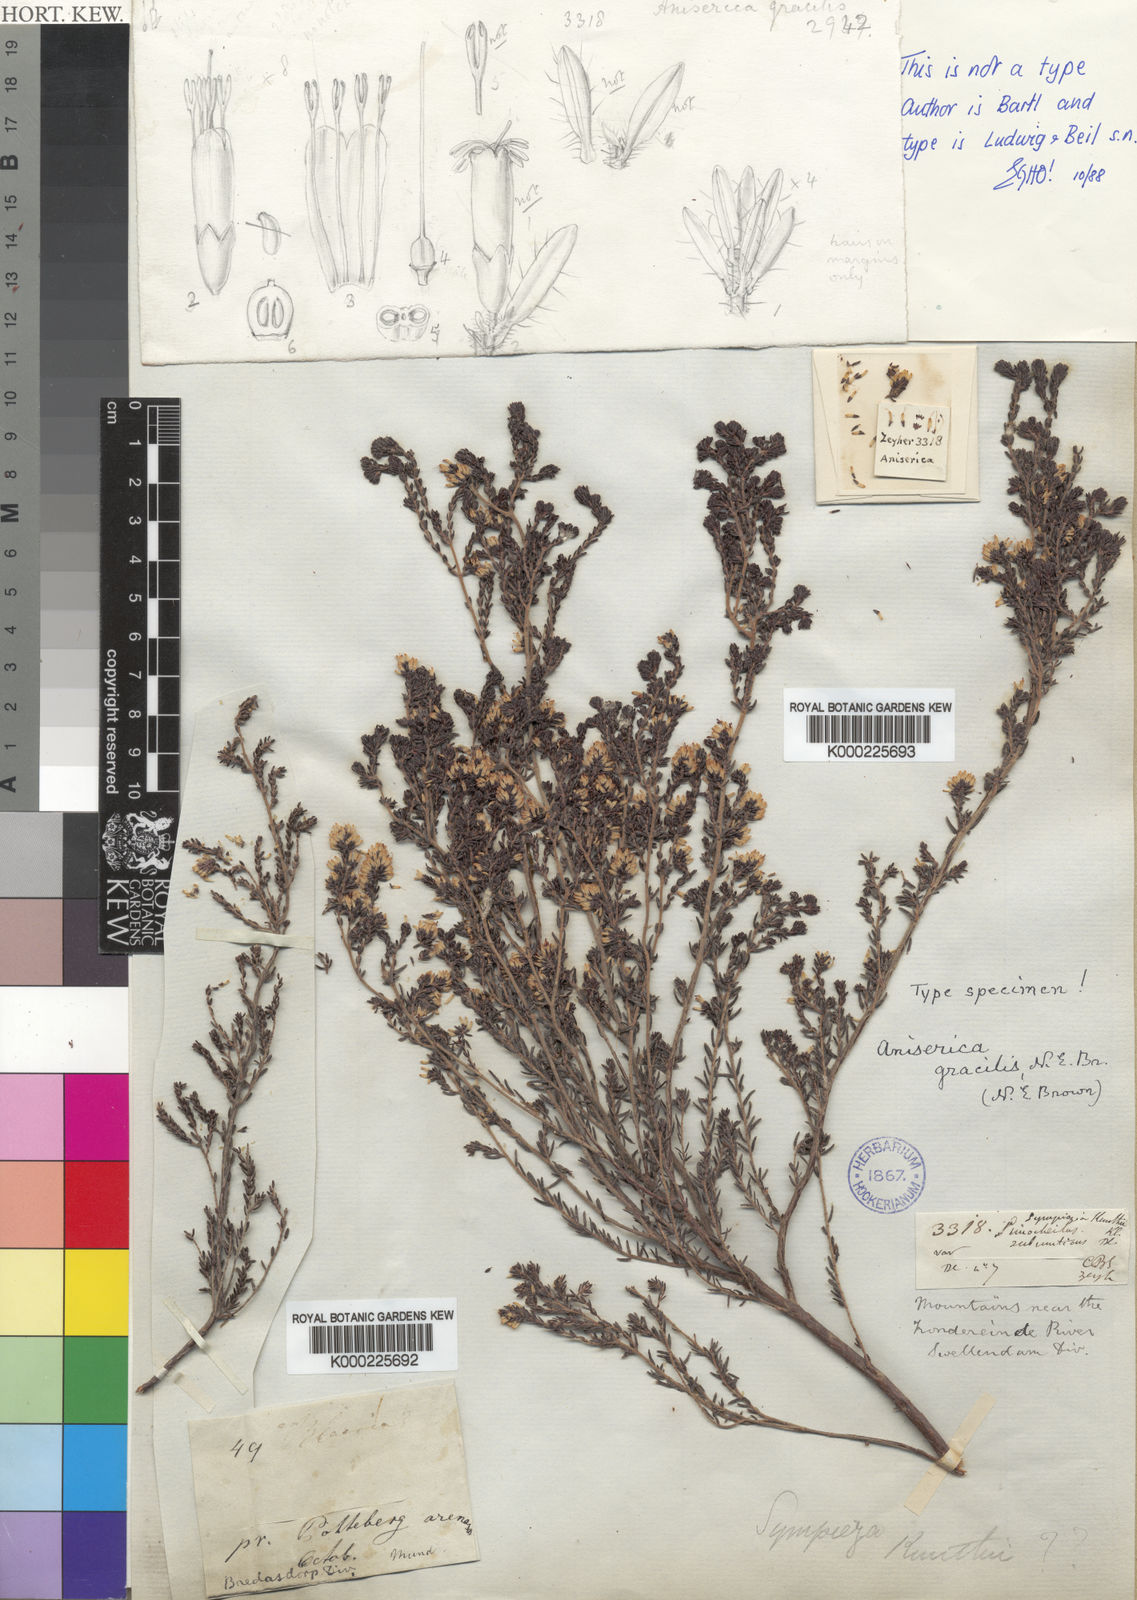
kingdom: Plantae
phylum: Tracheophyta
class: Magnoliopsida
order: Ericales
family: Ericaceae
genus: Erica
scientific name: Erica benthamiana
